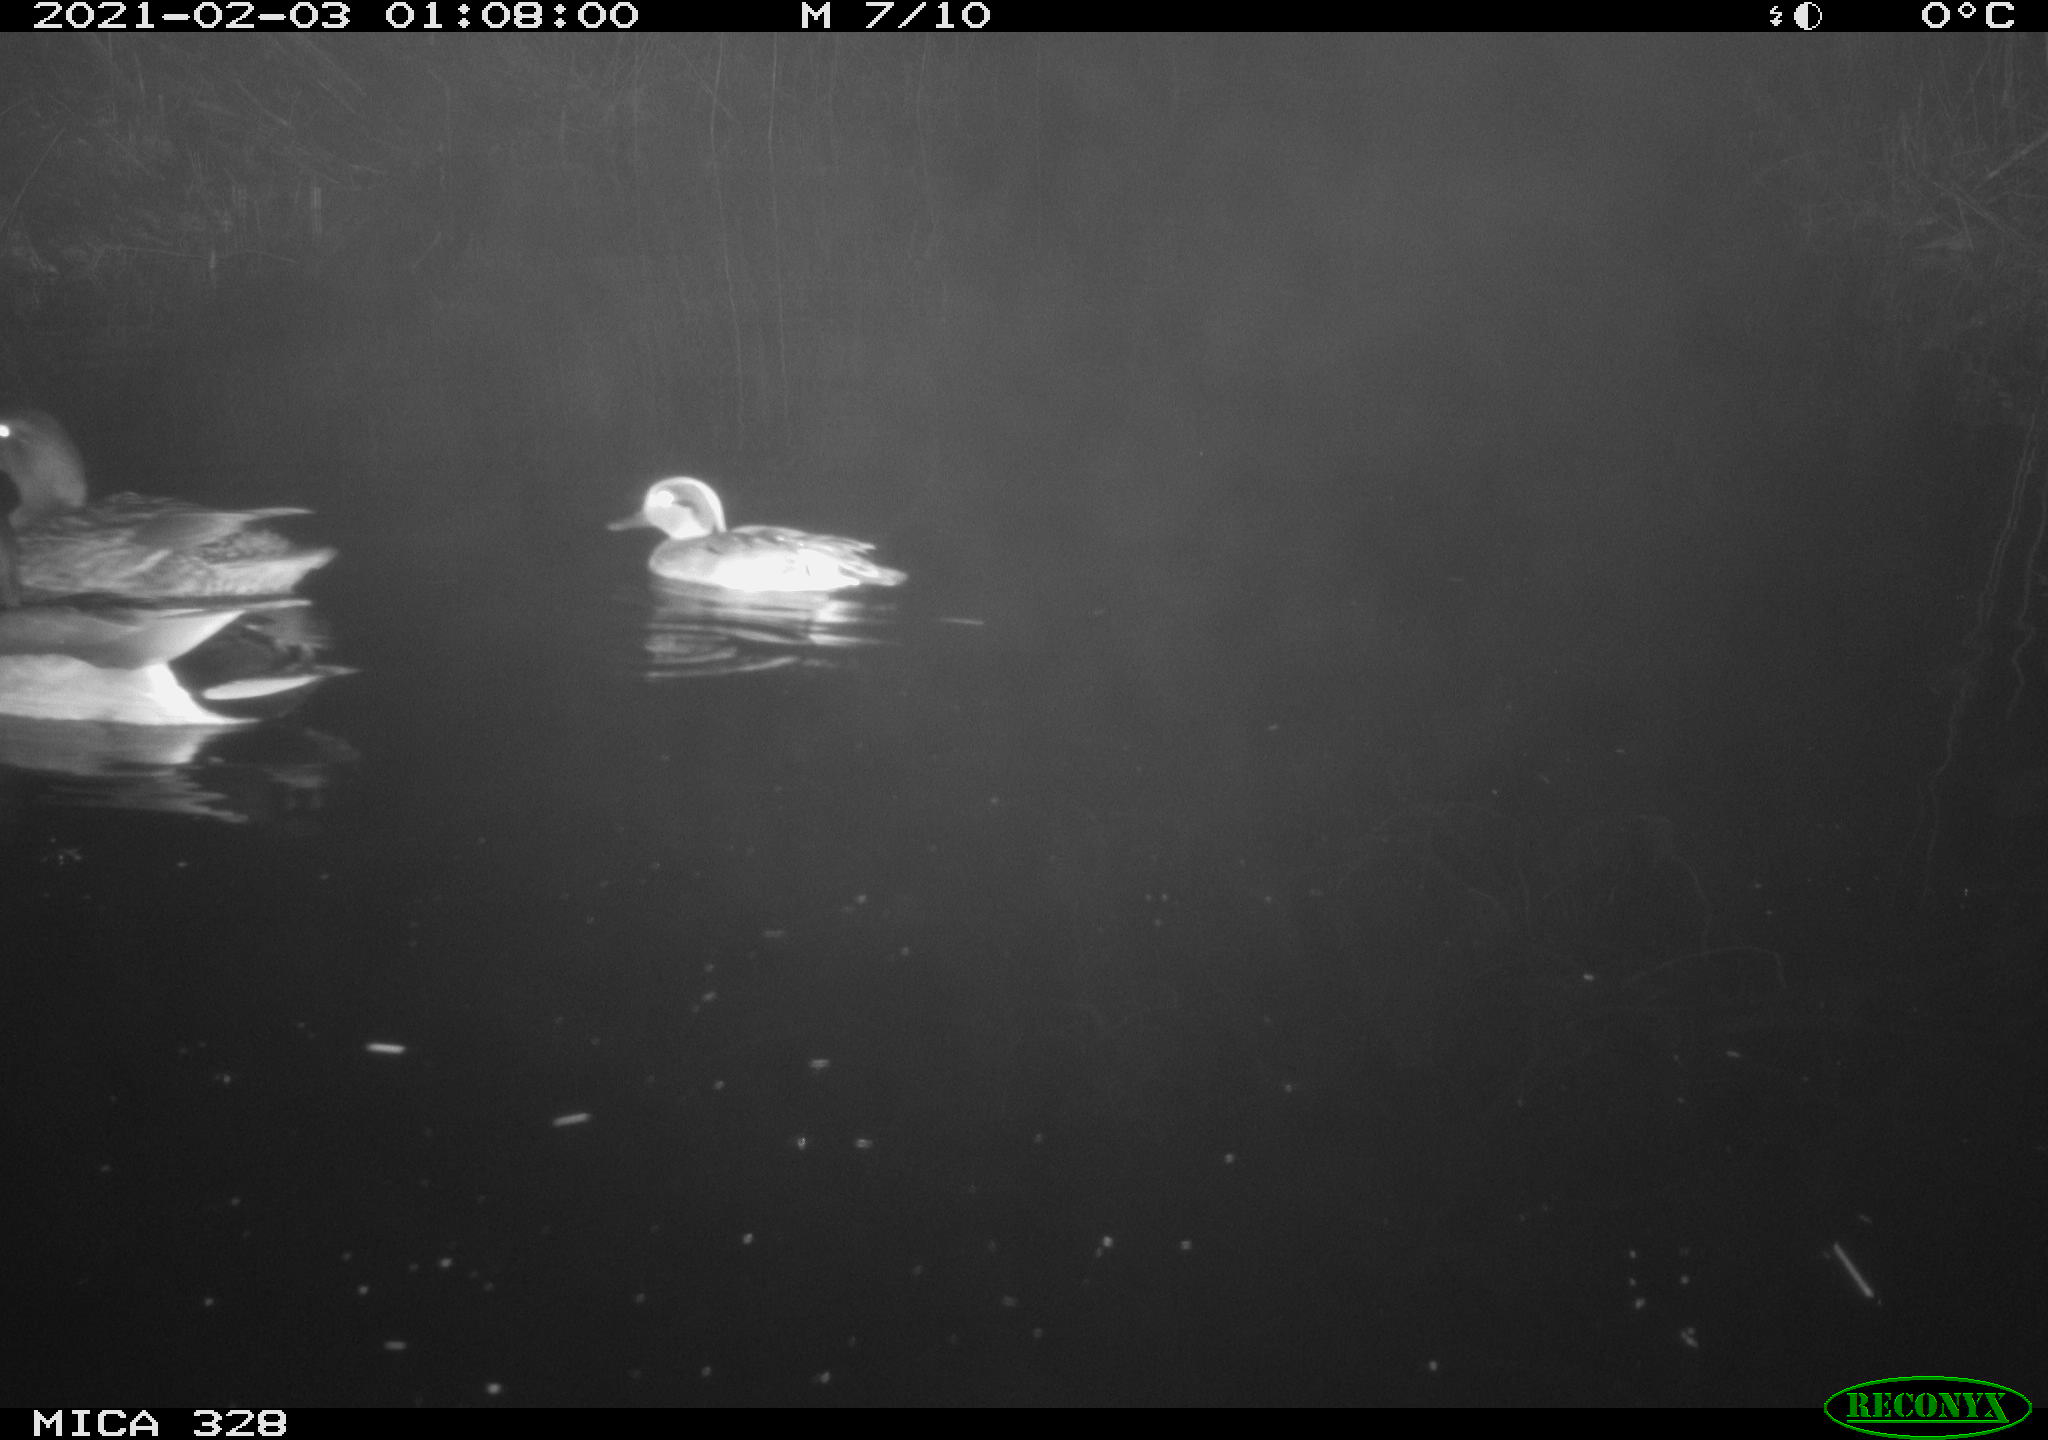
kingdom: Animalia
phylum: Chordata
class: Aves
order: Anseriformes
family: Anatidae
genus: Anas
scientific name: Anas
